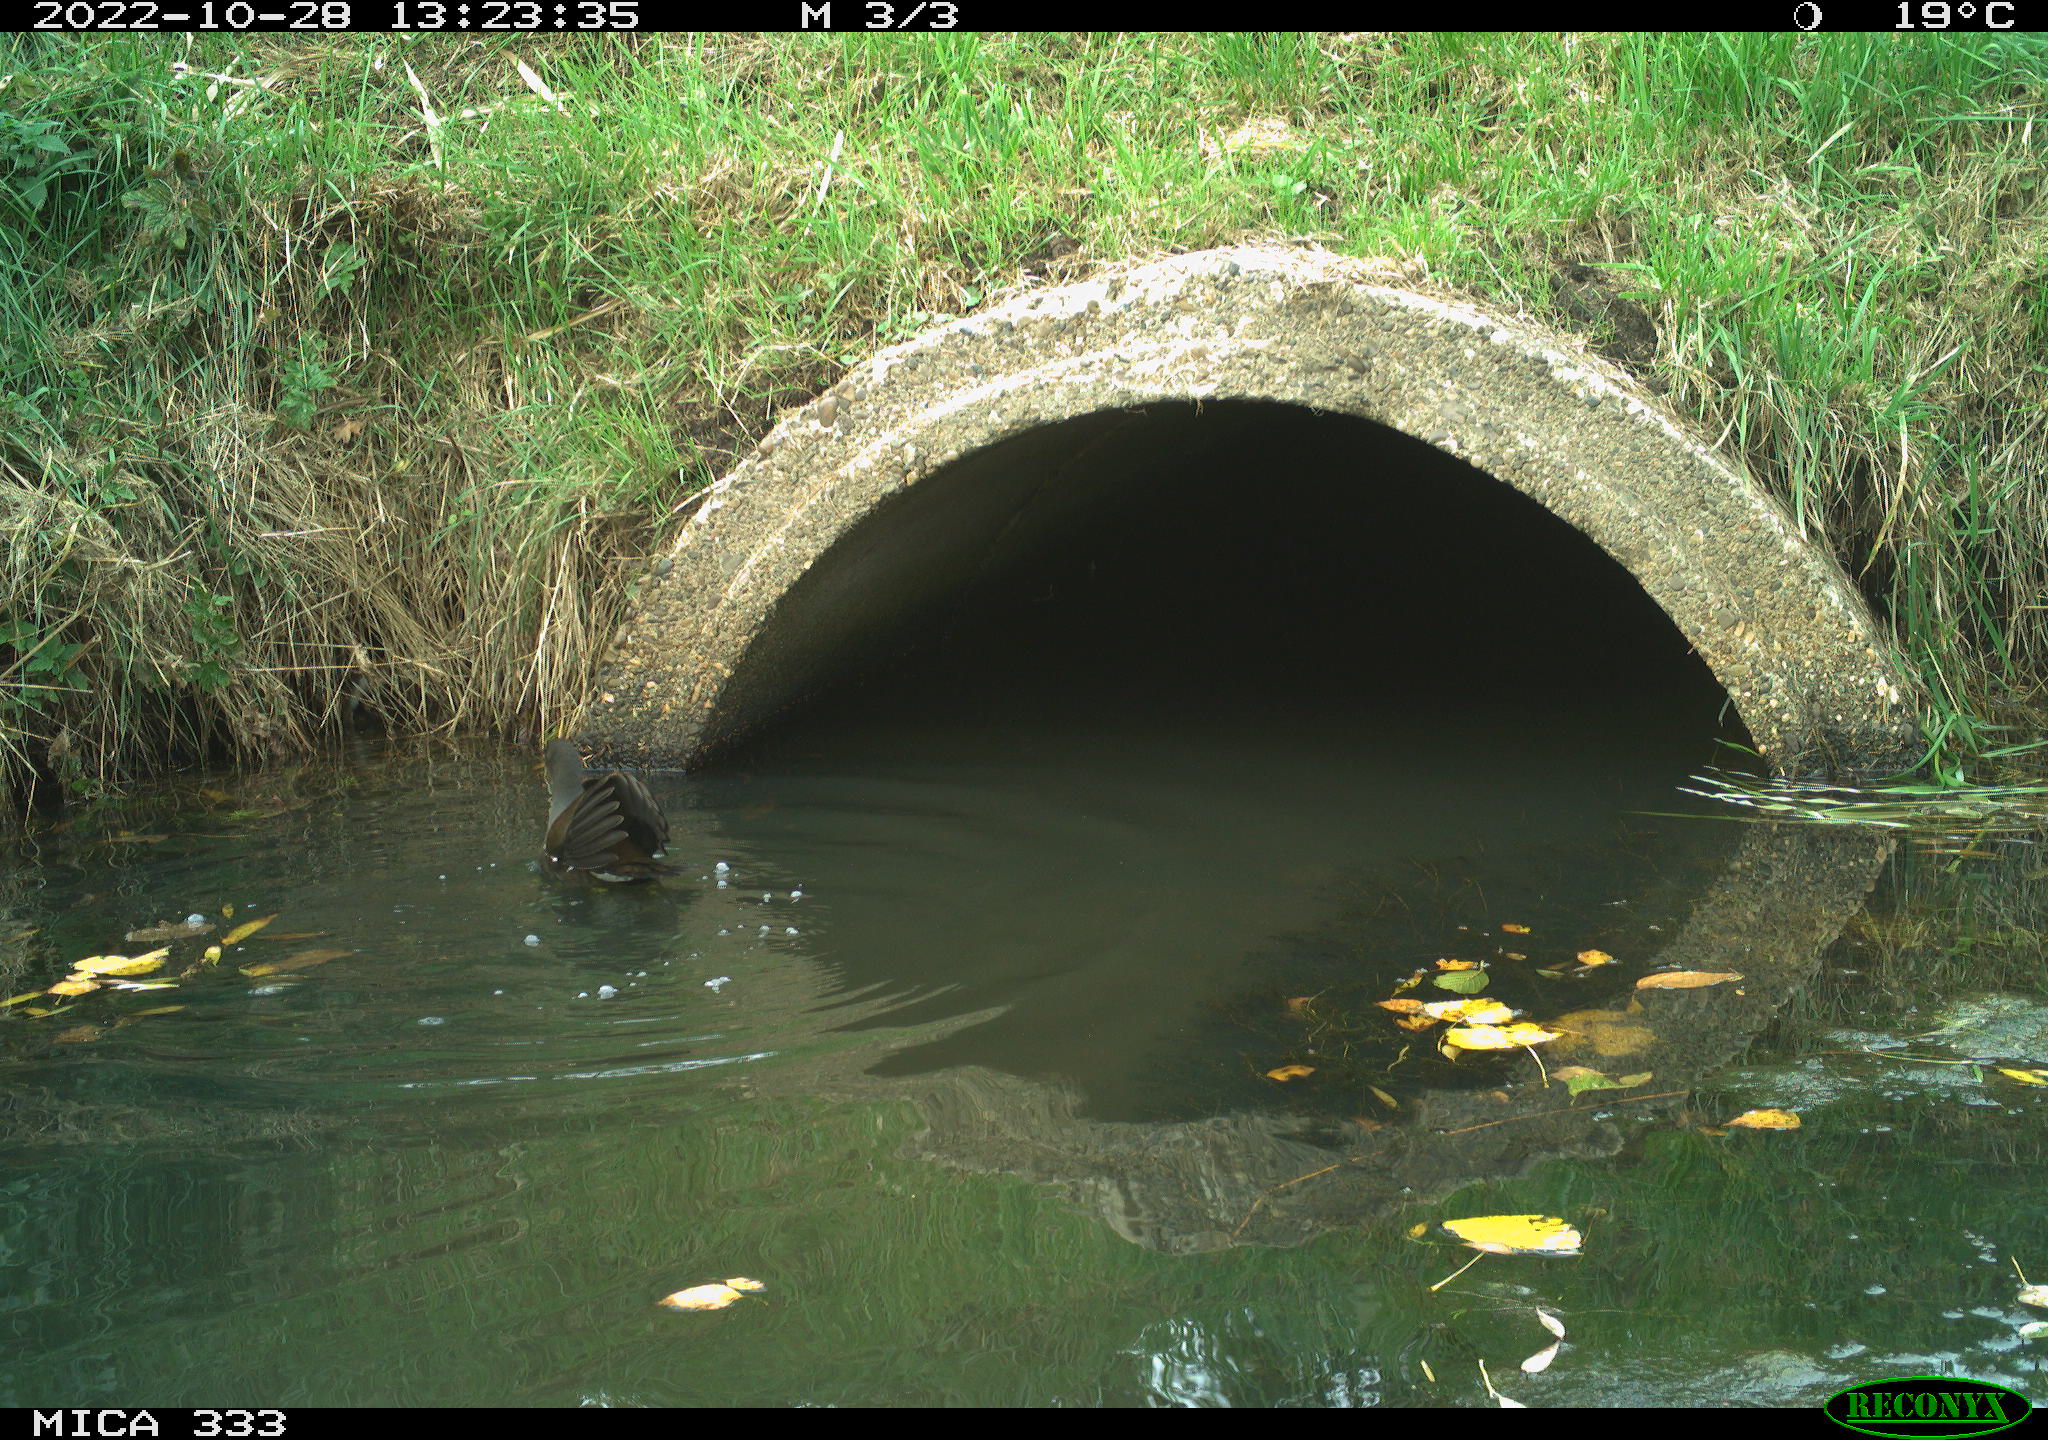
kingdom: Animalia
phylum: Chordata
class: Aves
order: Gruiformes
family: Rallidae
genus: Gallinula
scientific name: Gallinula chloropus
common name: Common moorhen
